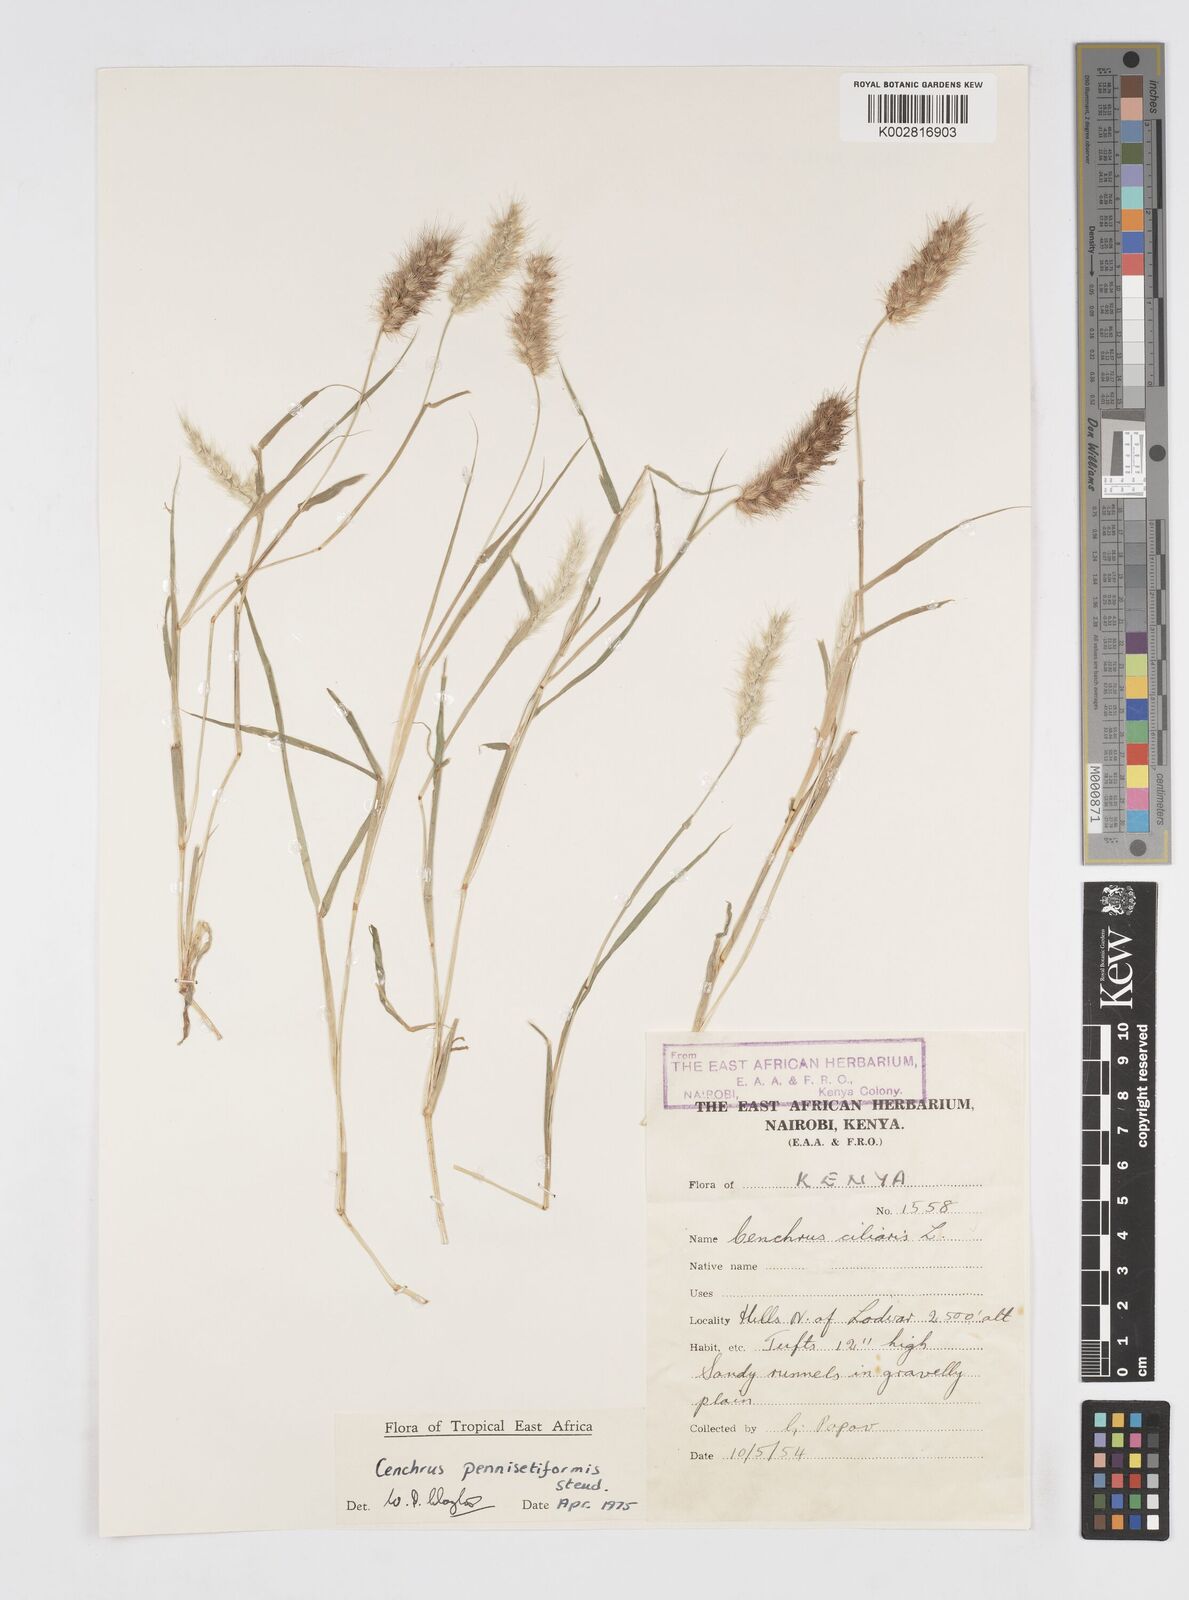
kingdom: Plantae
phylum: Tracheophyta
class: Liliopsida
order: Poales
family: Poaceae
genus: Cenchrus
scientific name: Cenchrus pennisetiformis
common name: Cloncurry
